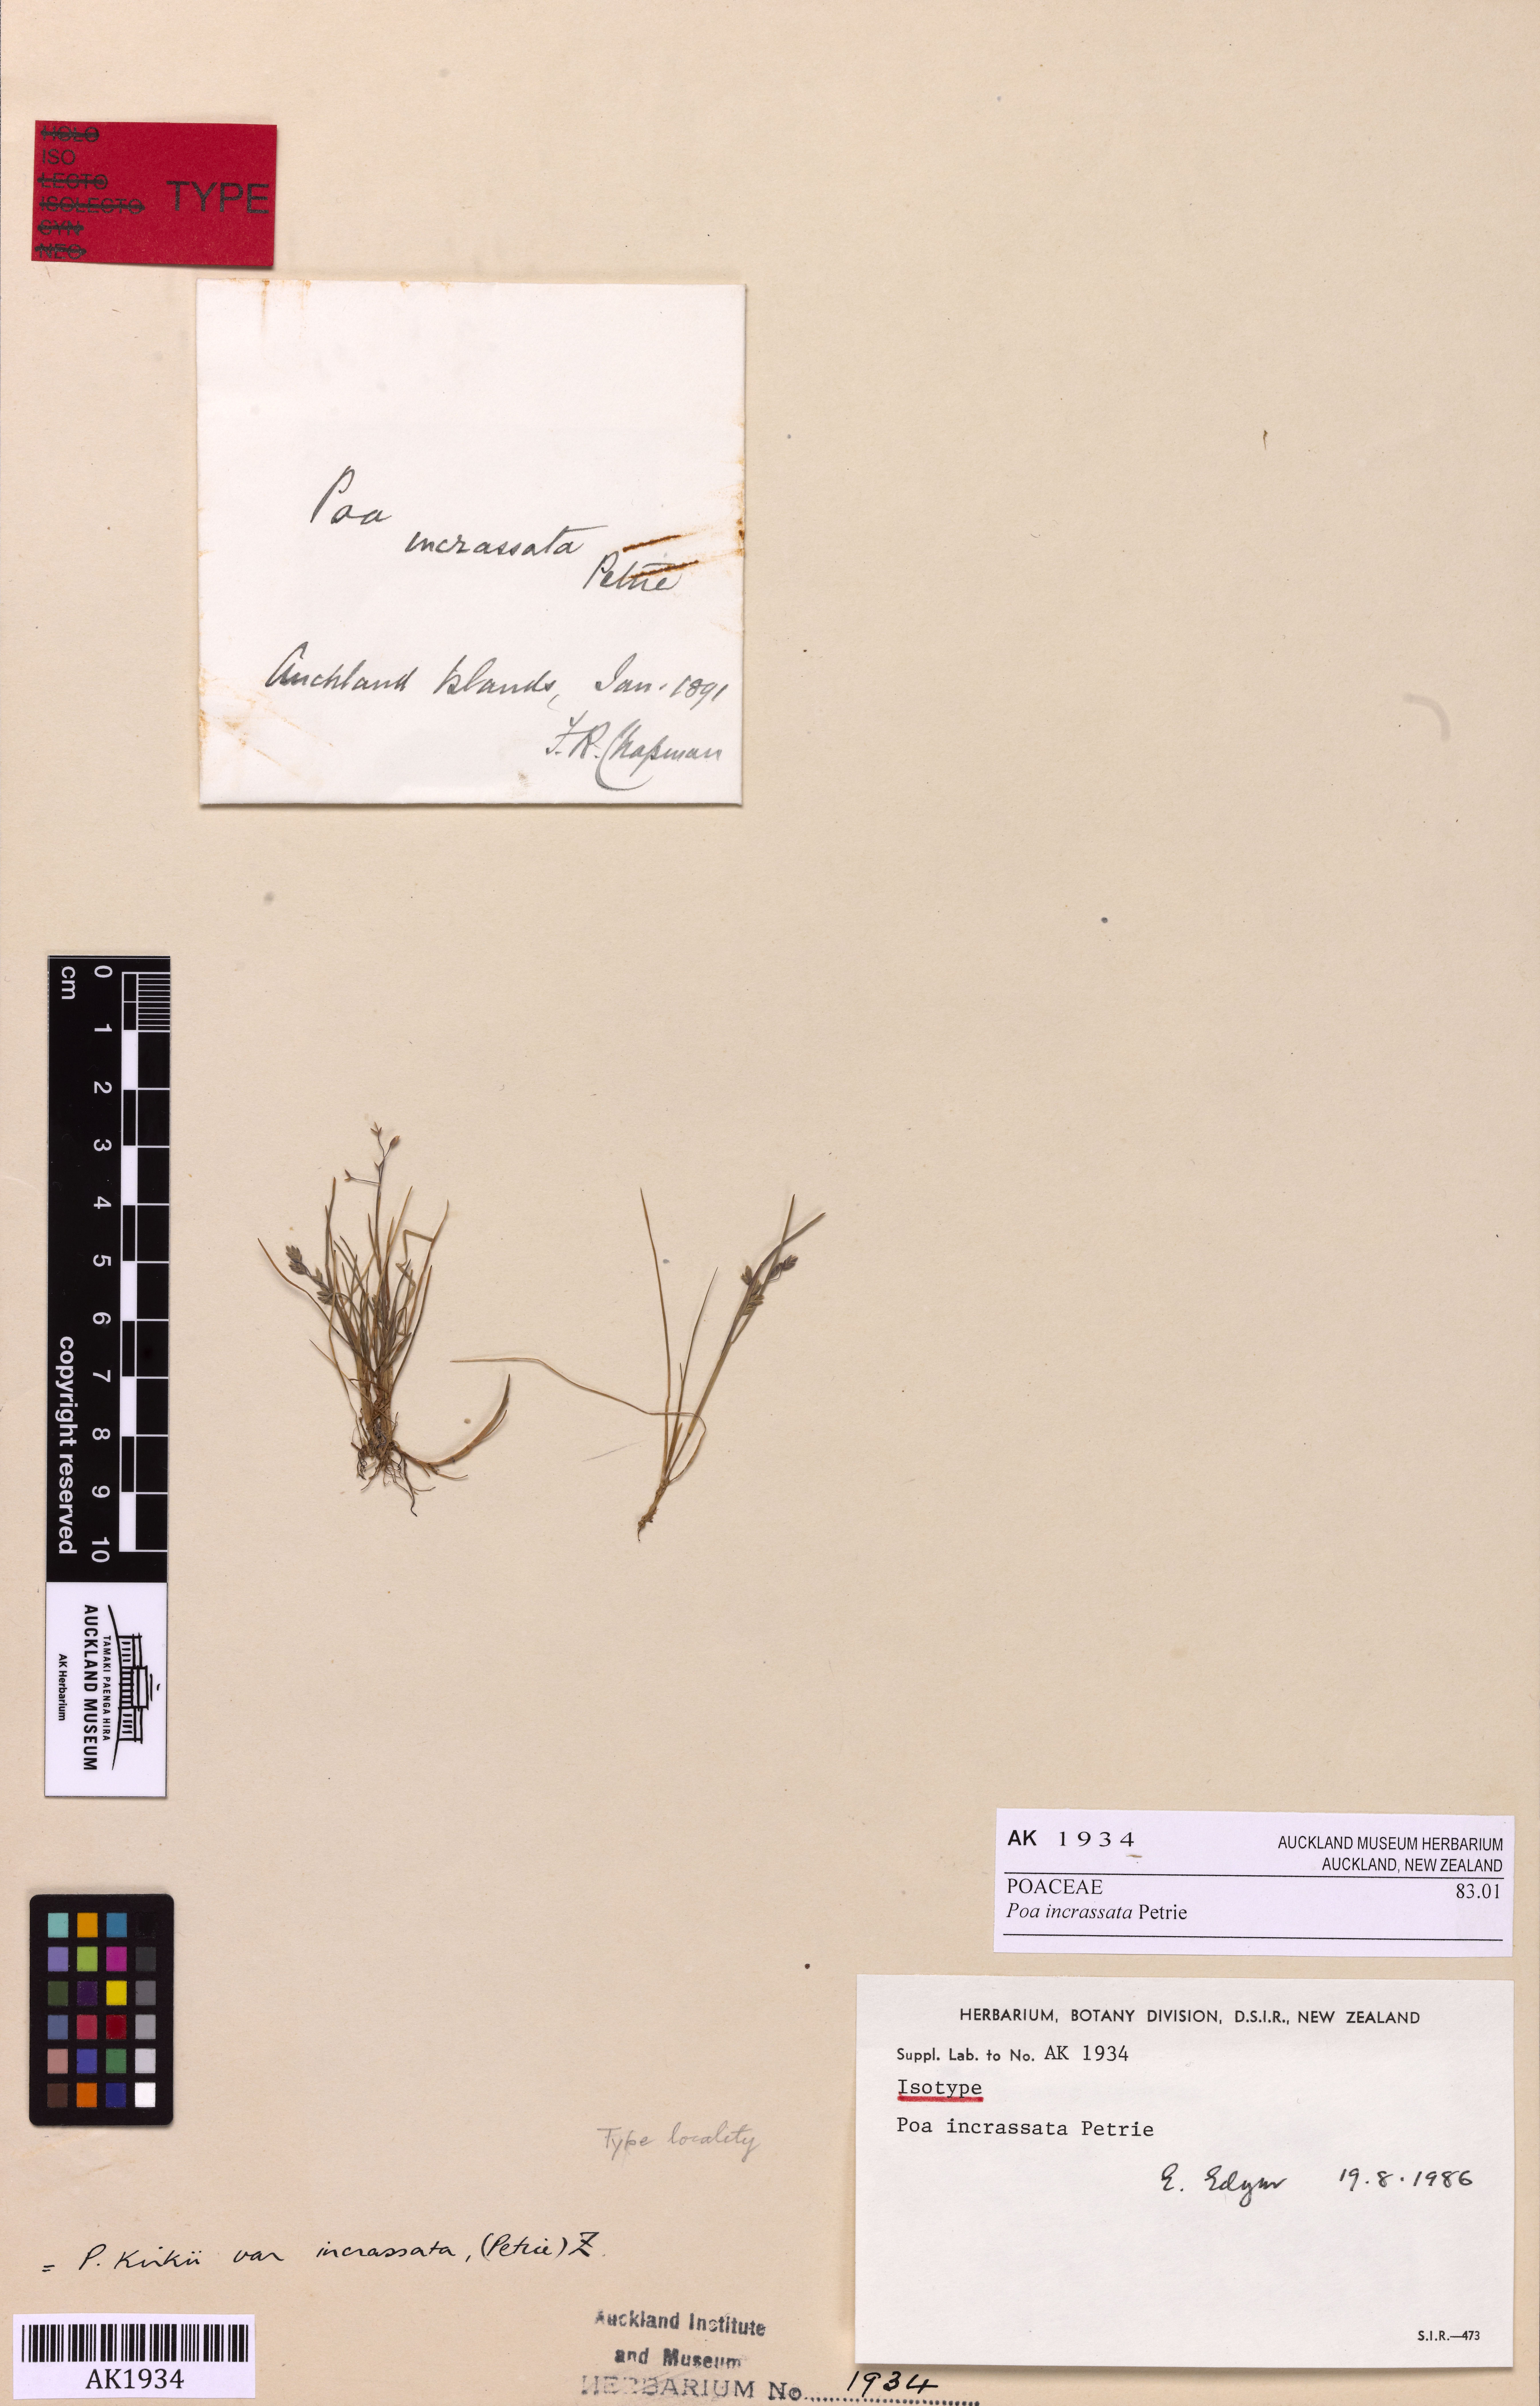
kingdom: Plantae
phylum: Tracheophyta
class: Liliopsida
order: Poales
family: Poaceae
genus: Poa
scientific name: Poa exigua
